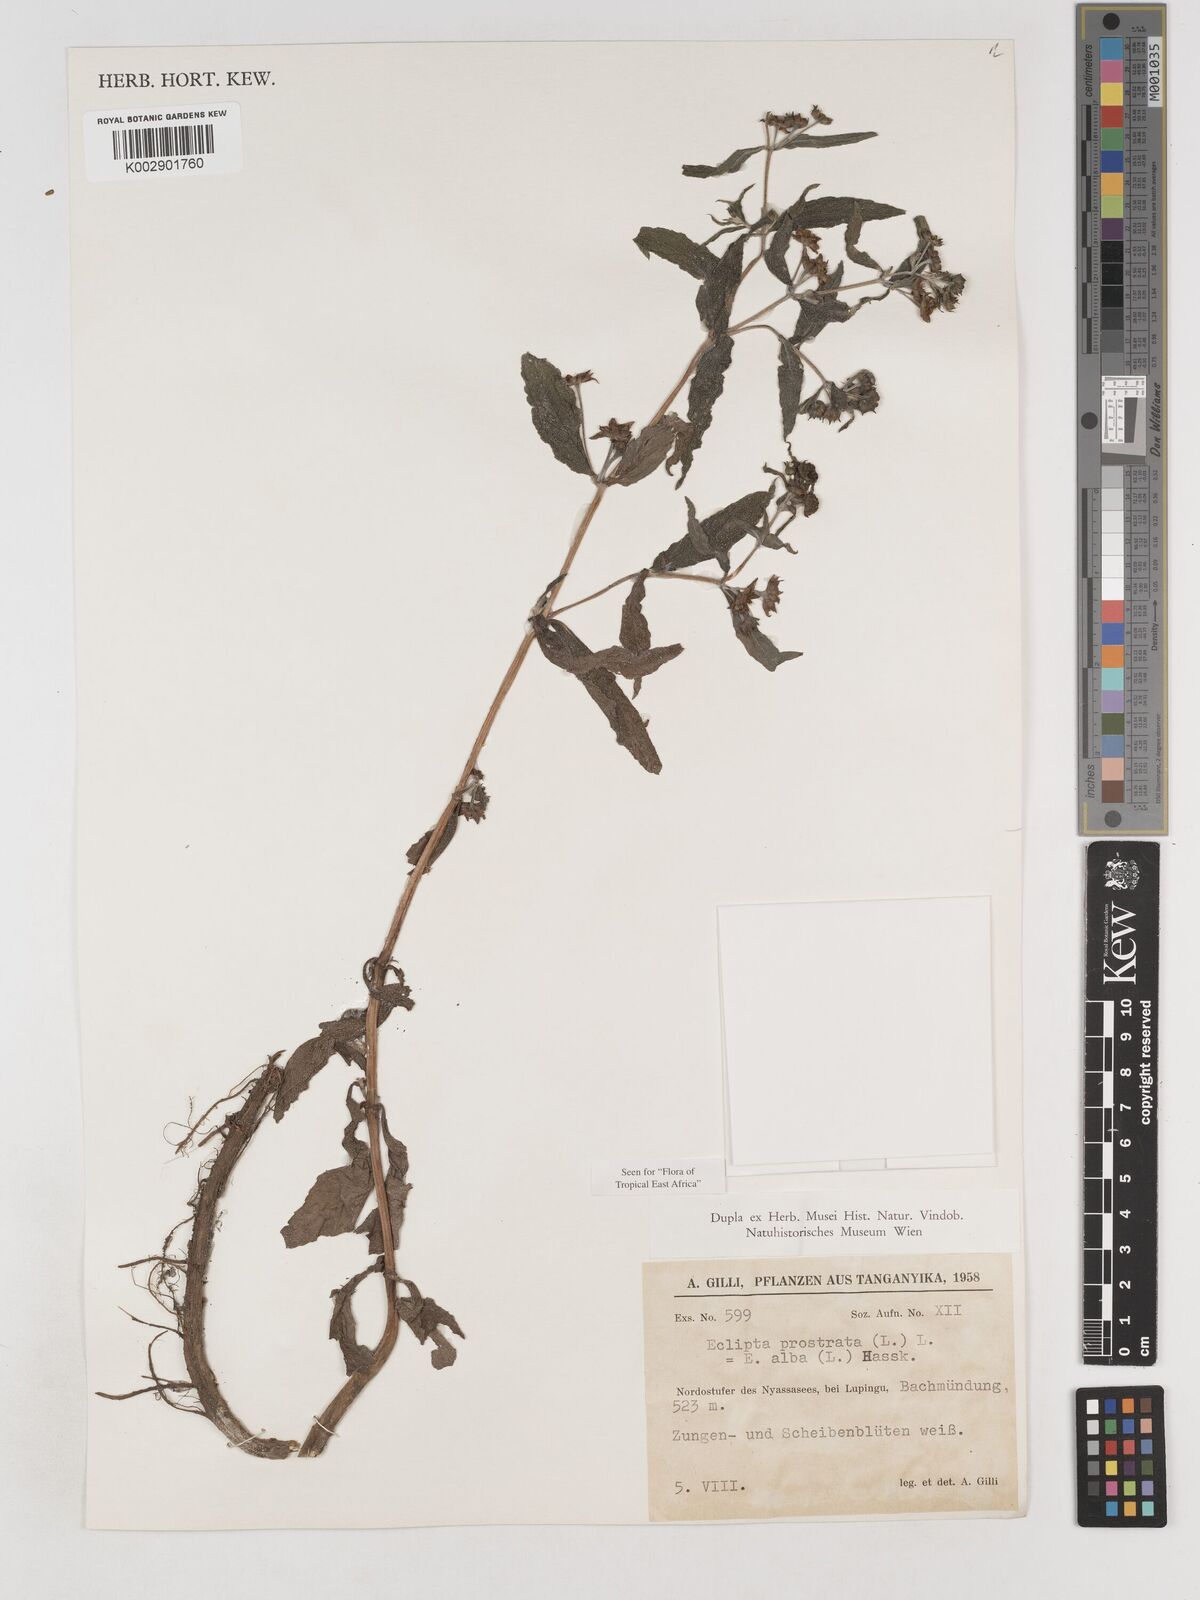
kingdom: Plantae
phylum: Tracheophyta
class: Magnoliopsida
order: Asterales
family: Asteraceae
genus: Eclipta
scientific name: Eclipta alba
